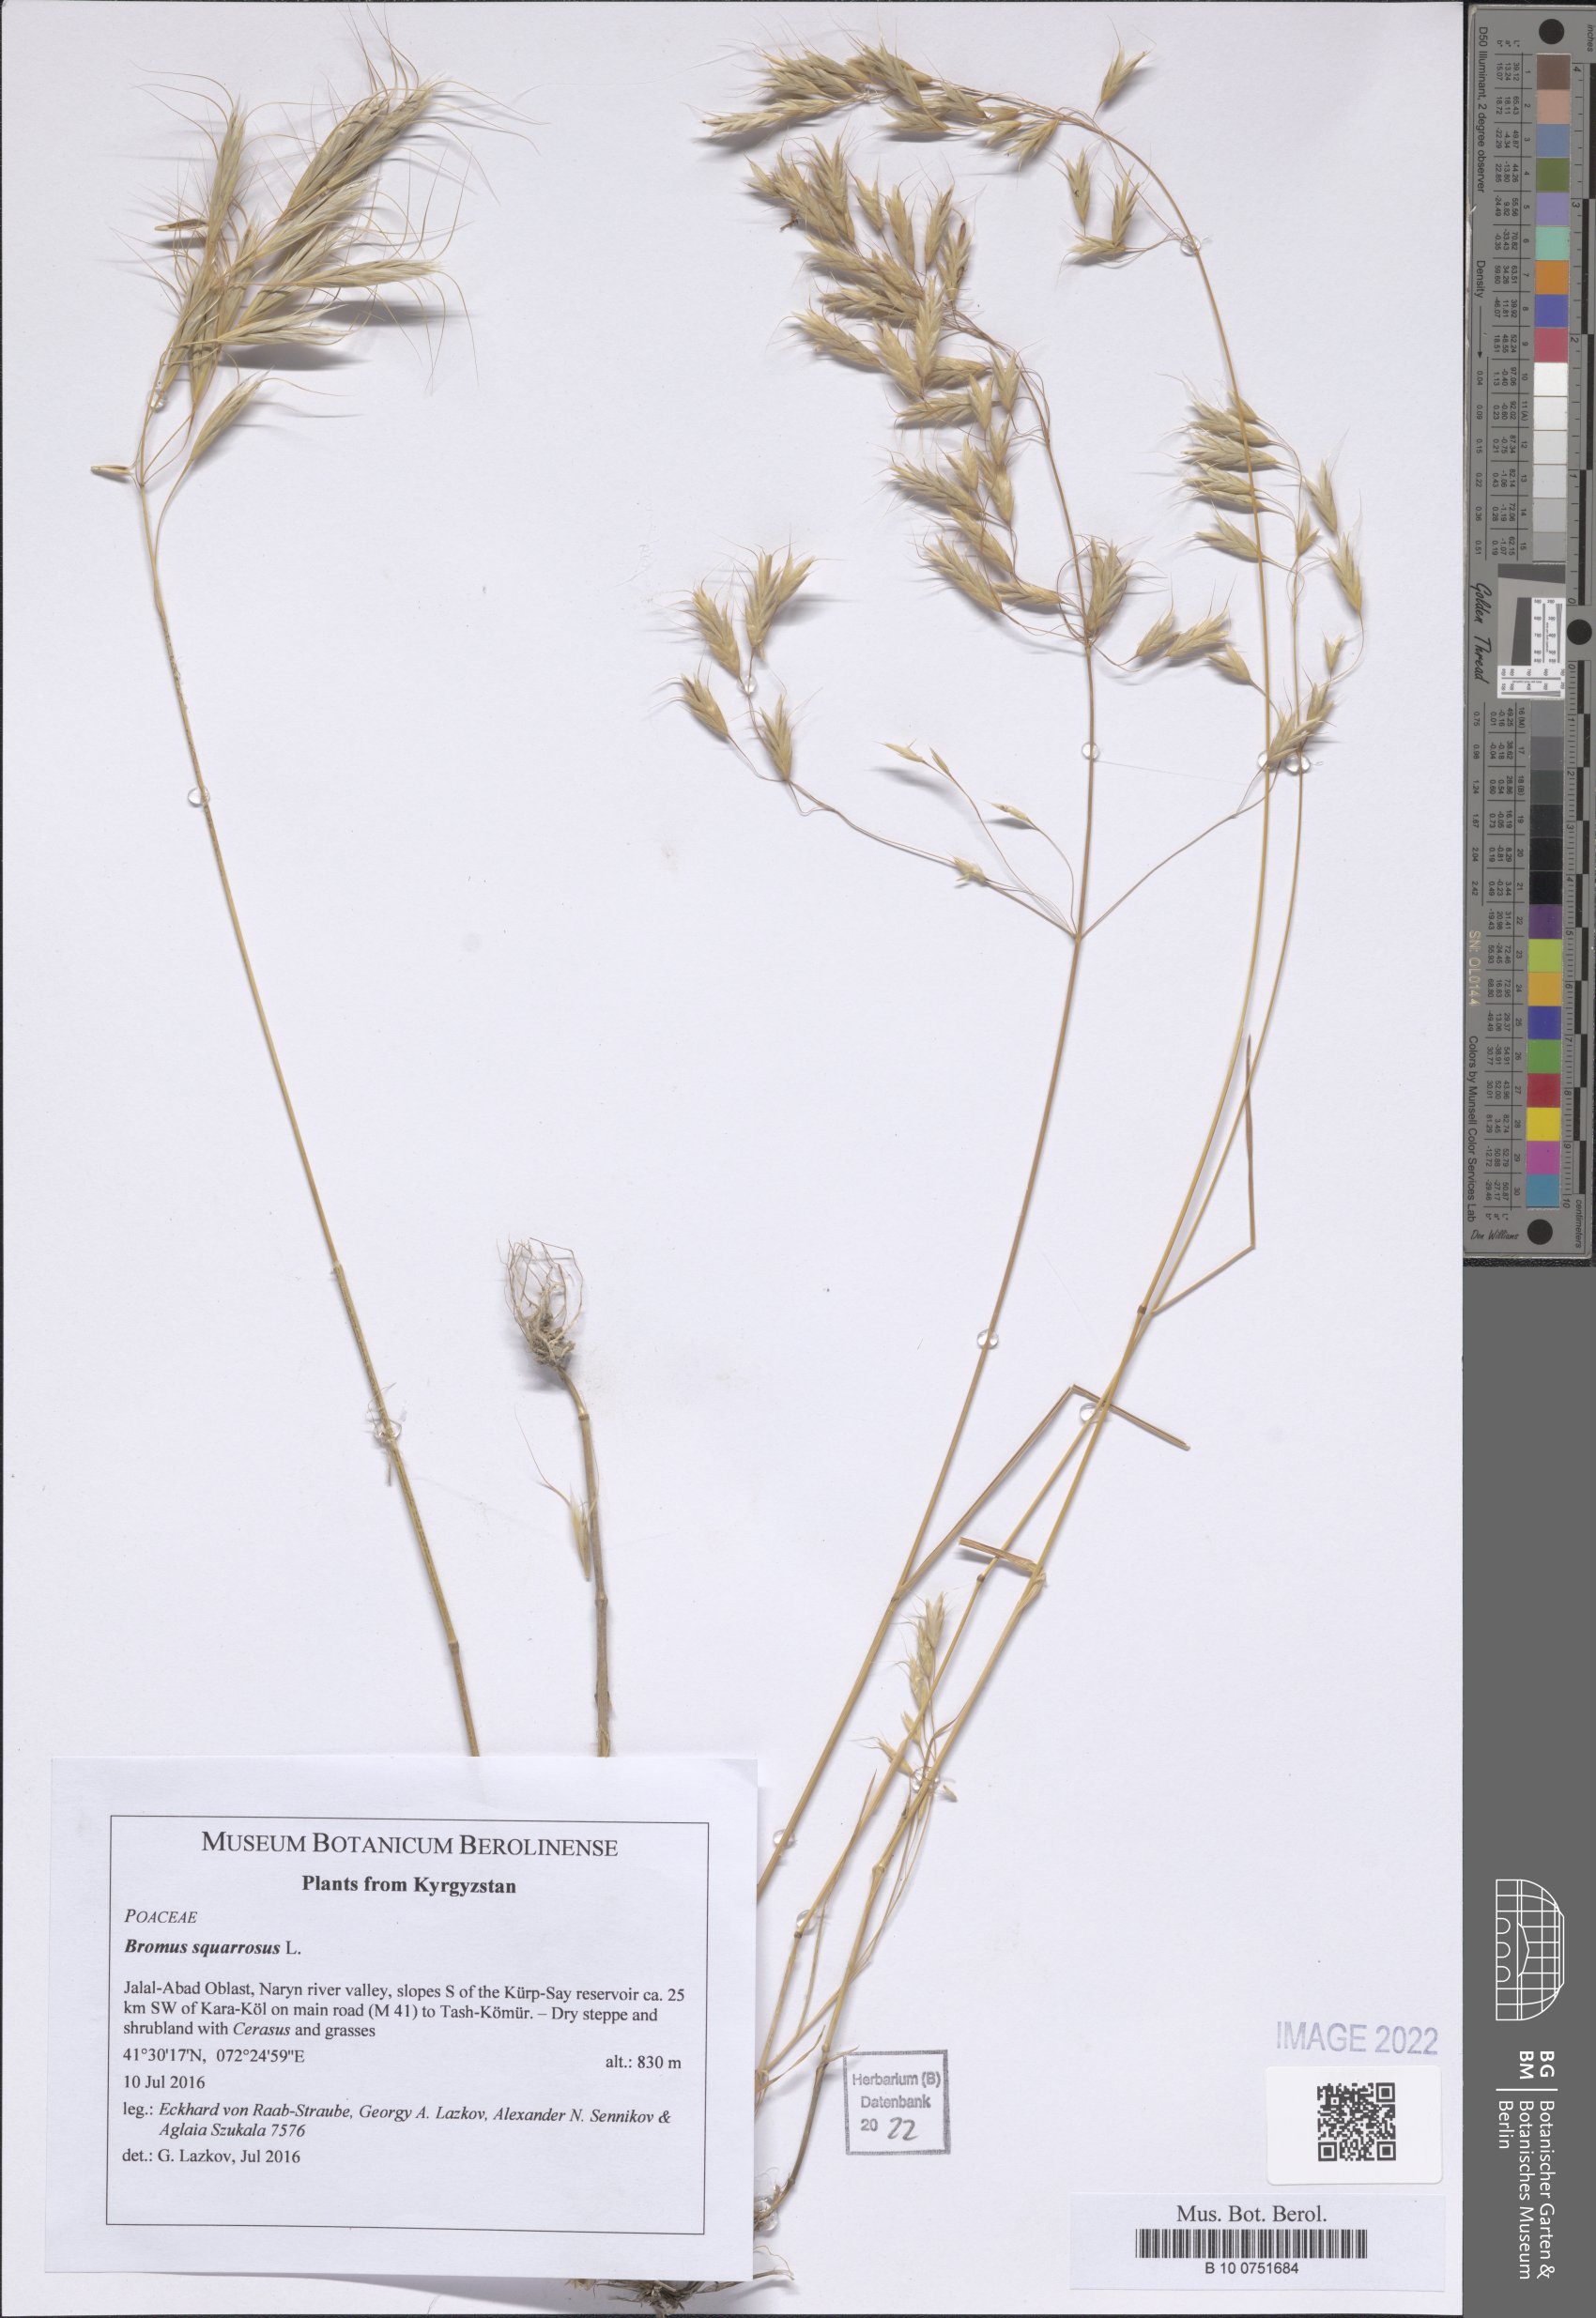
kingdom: Plantae
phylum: Tracheophyta
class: Liliopsida
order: Poales
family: Poaceae
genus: Bromus
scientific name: Bromus squarrosus
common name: Corn brome
